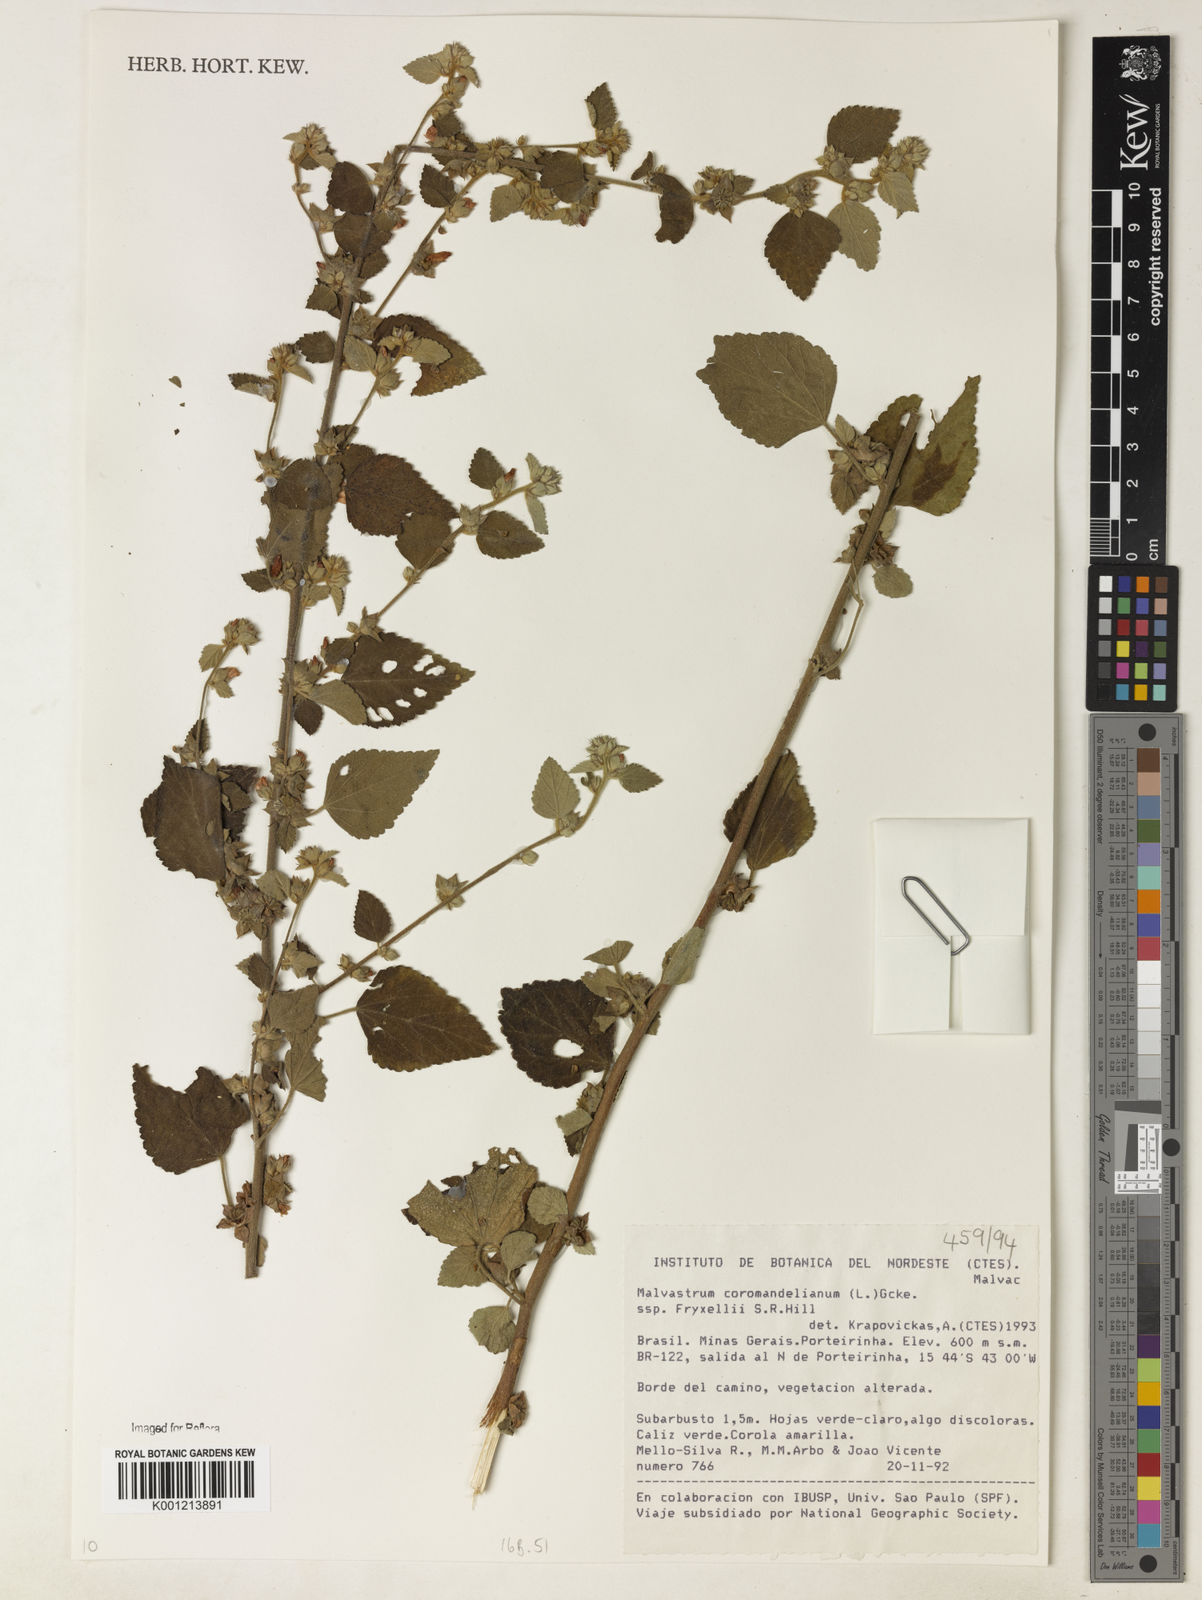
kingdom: Plantae
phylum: Tracheophyta
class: Magnoliopsida
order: Malvales
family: Malvaceae
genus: Malvastrum
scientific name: Malvastrum coromandelianum
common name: Threelobe false mallow
